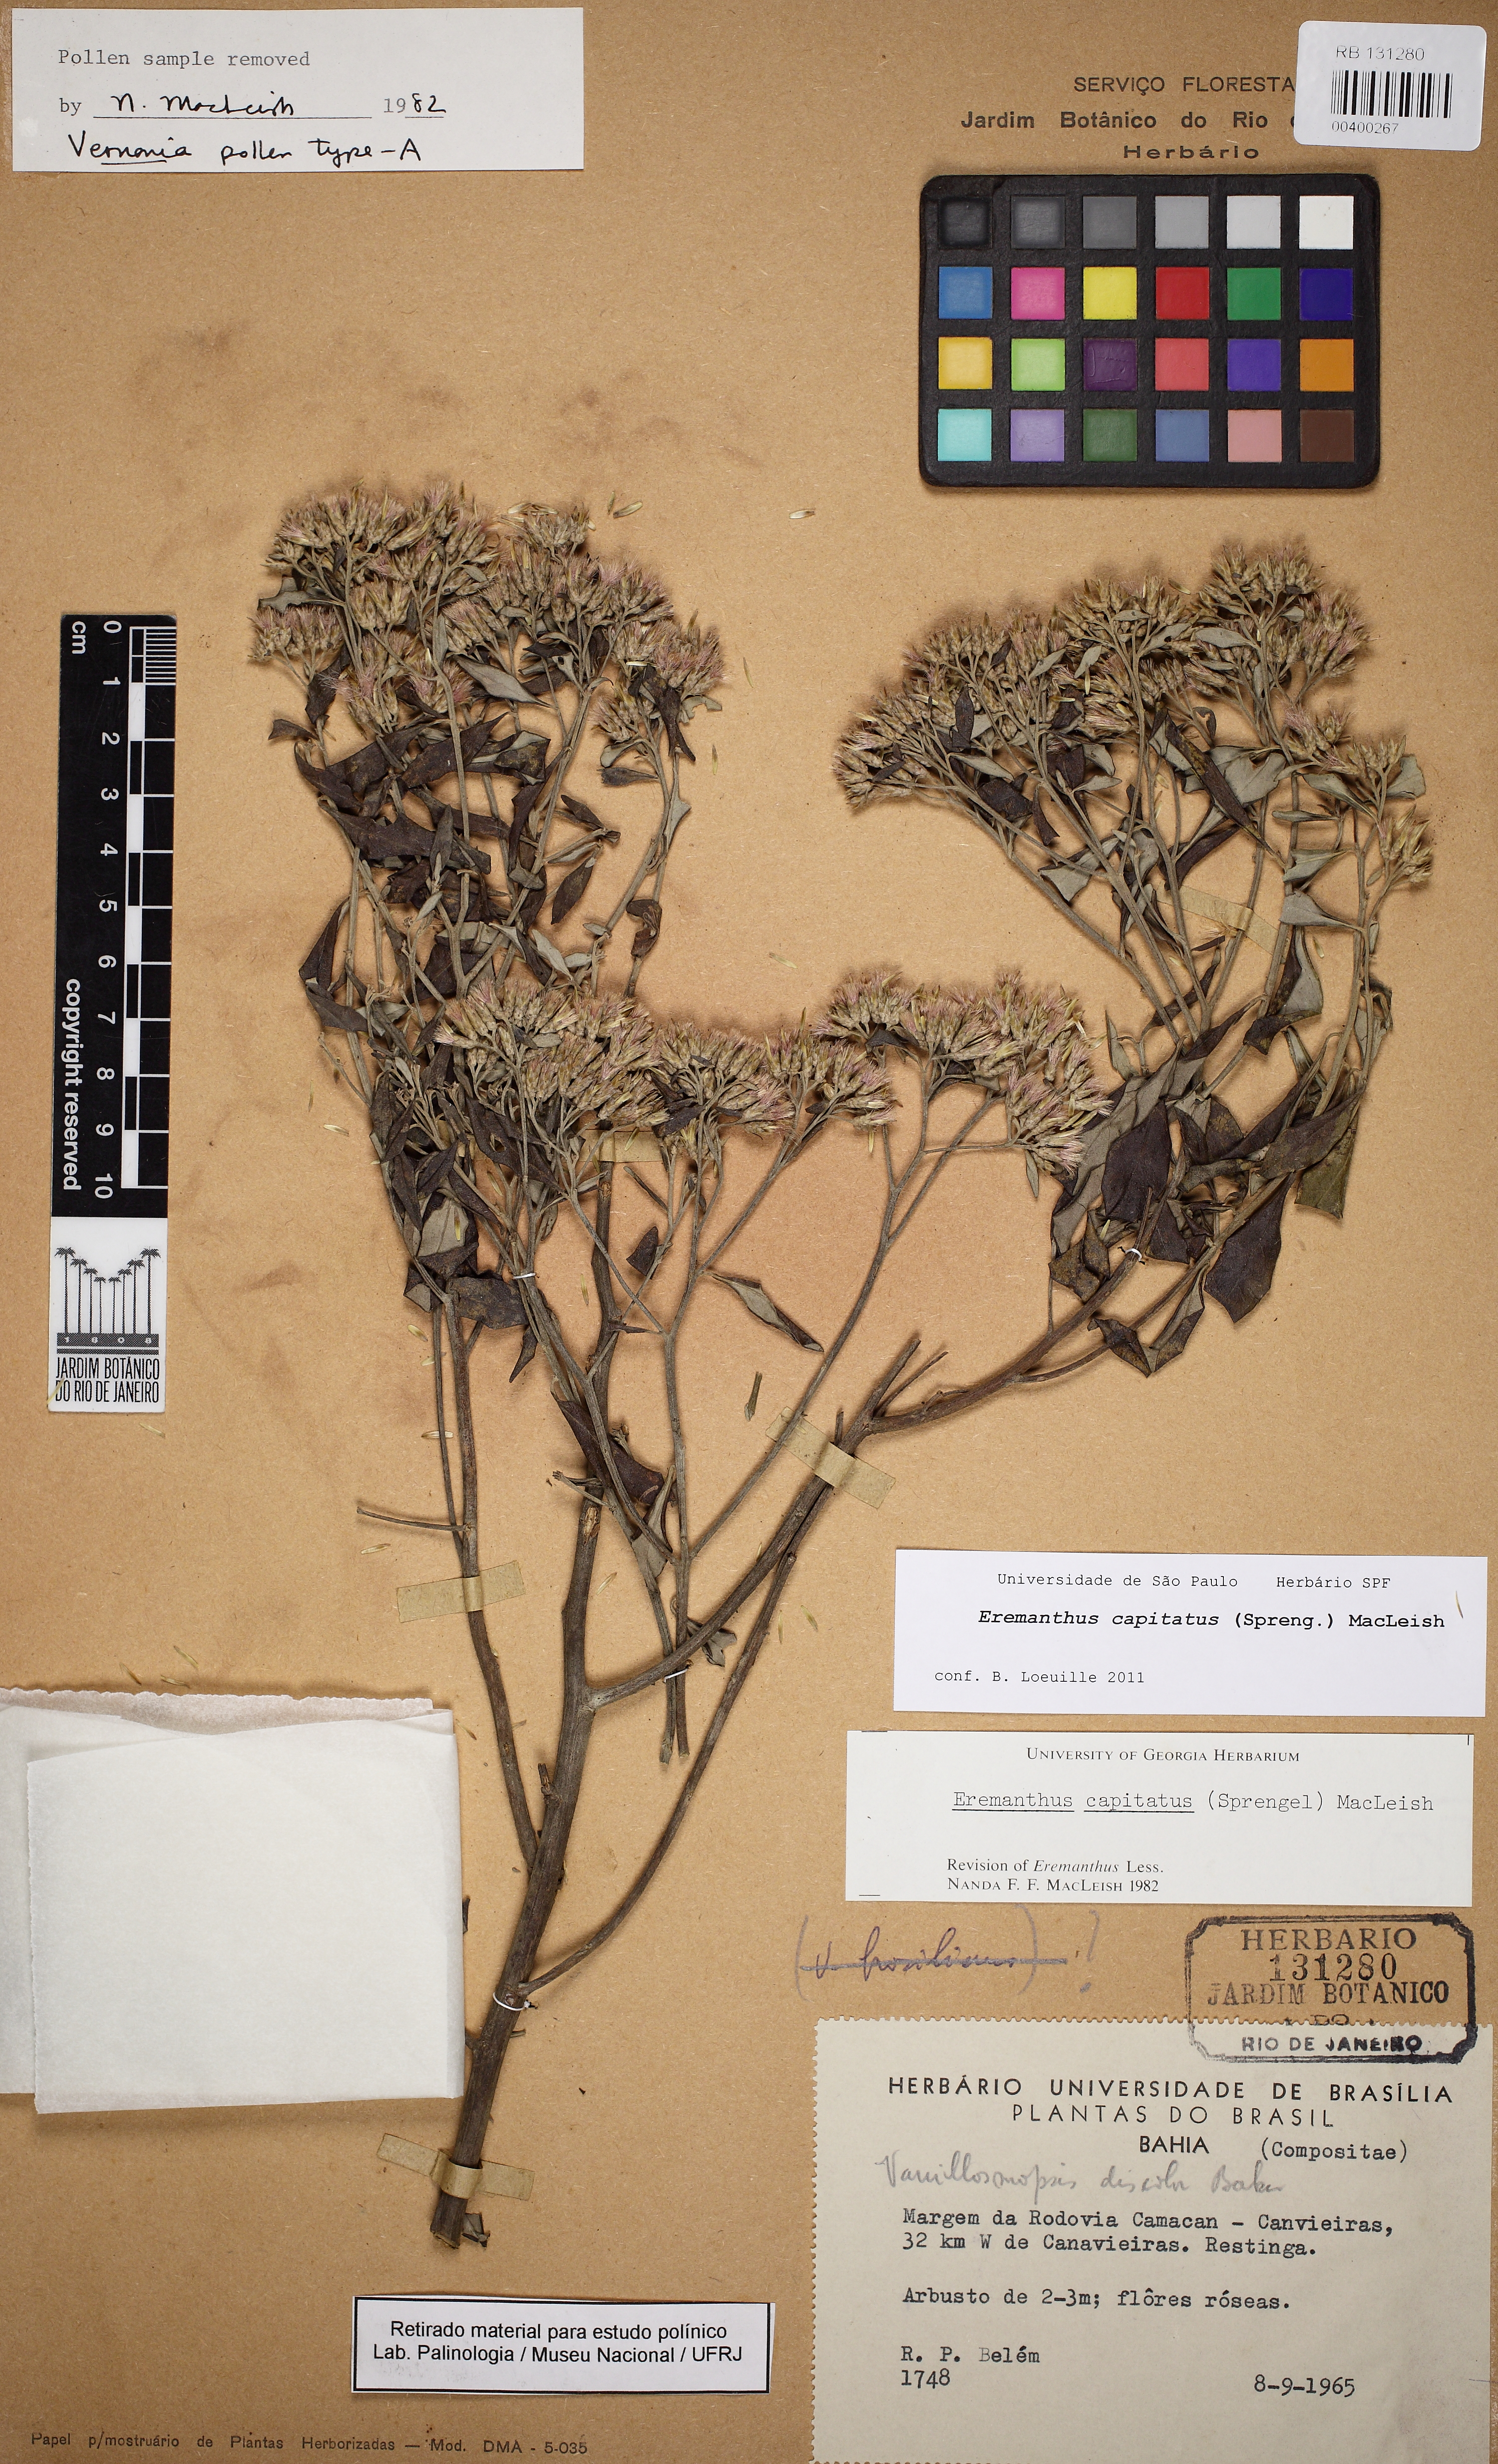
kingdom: Plantae
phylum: Tracheophyta
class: Magnoliopsida
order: Asterales
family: Asteraceae
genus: Eremanthus
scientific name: Eremanthus capitatus
